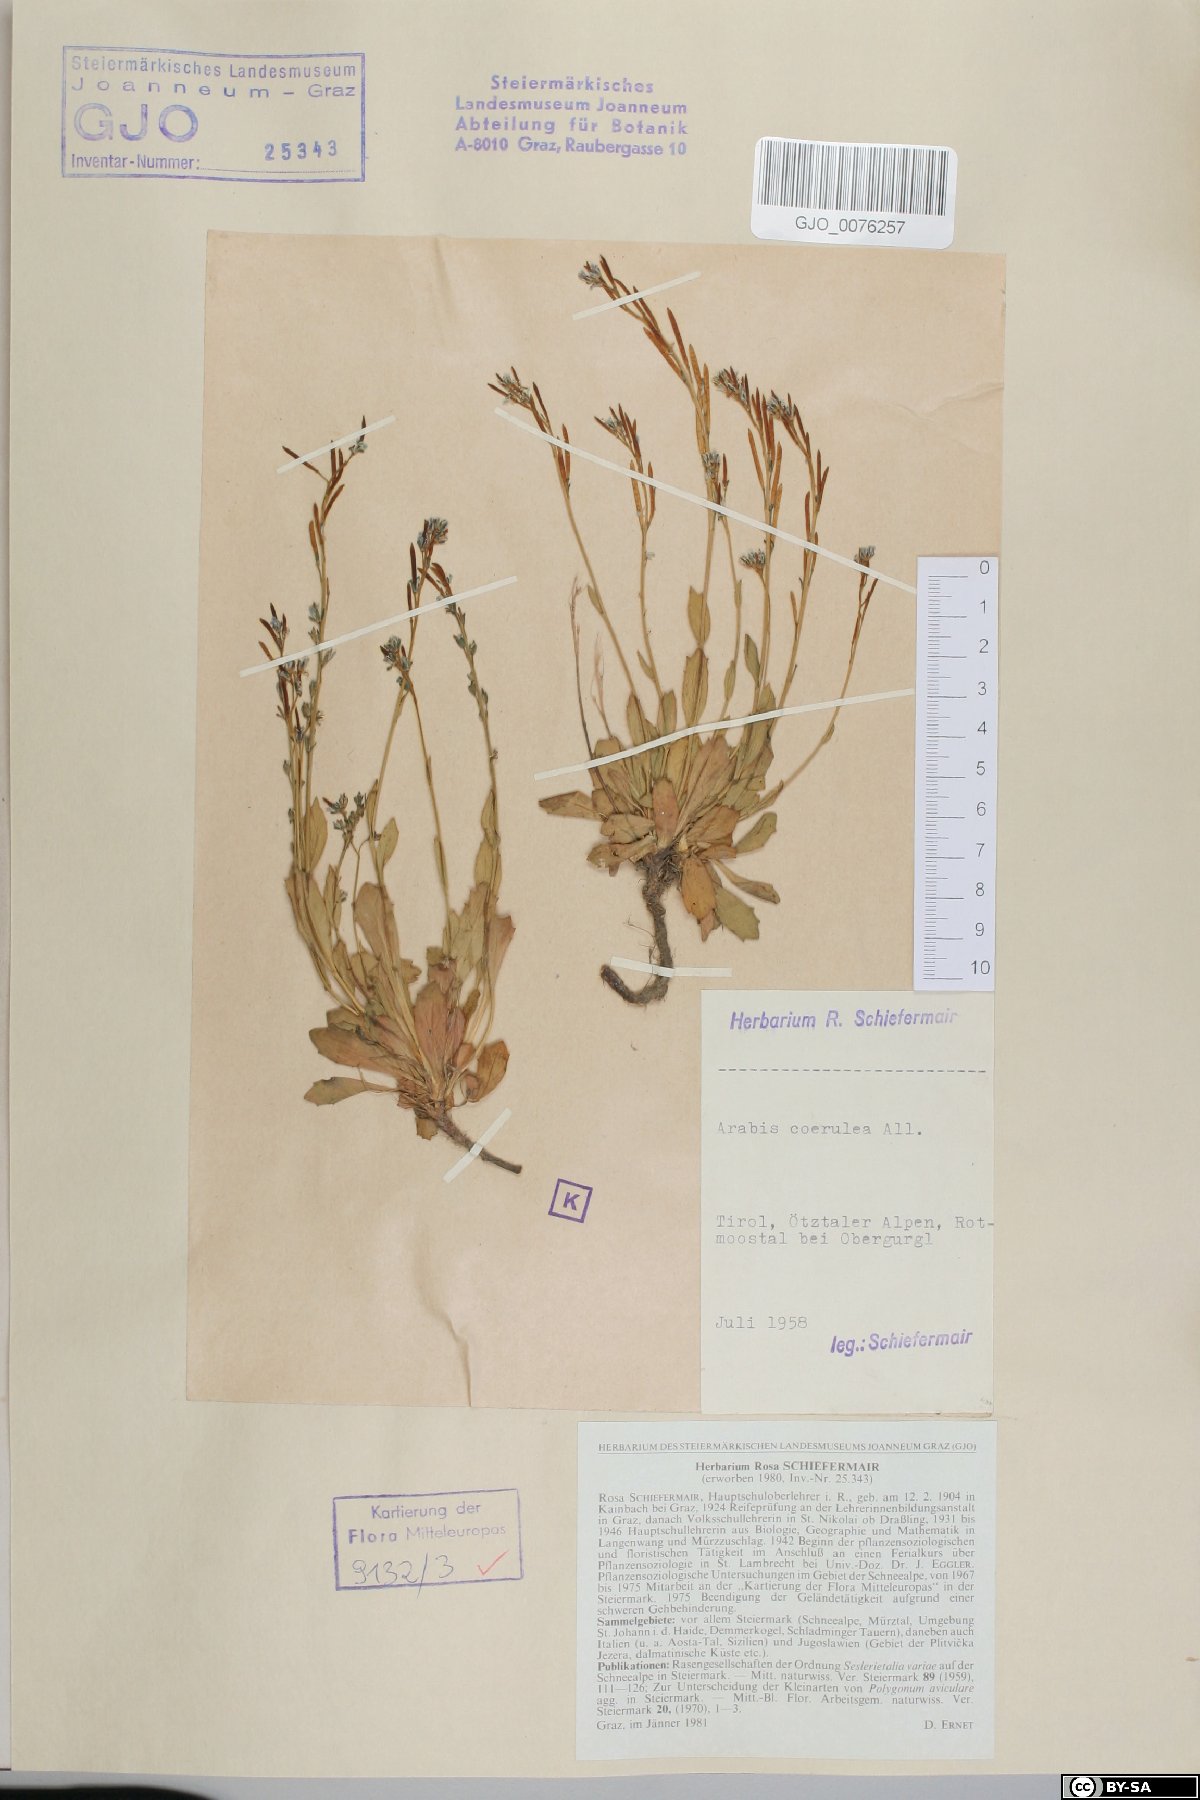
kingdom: Plantae
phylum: Tracheophyta
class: Magnoliopsida
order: Brassicales
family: Brassicaceae
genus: Arabis
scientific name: Arabis caerulea
